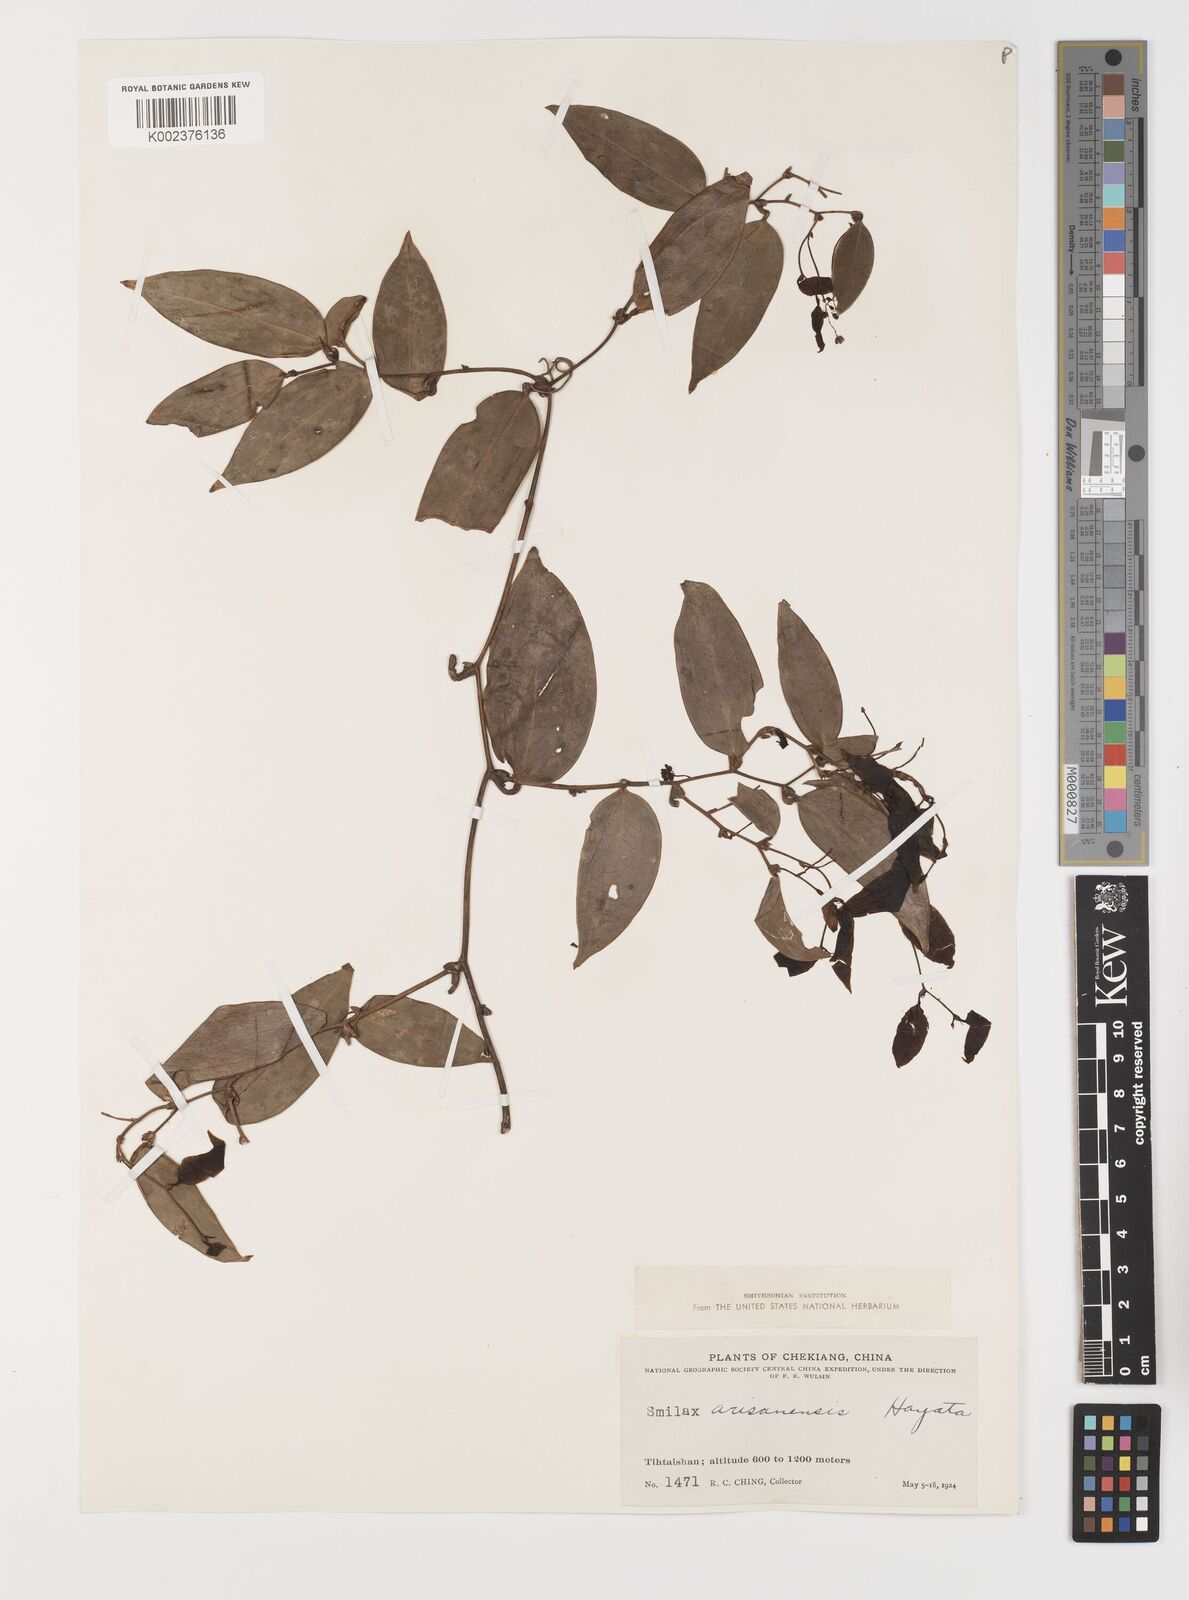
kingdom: Plantae
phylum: Tracheophyta
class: Liliopsida
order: Liliales
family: Smilacaceae
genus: Smilax
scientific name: Smilax arisanensis
